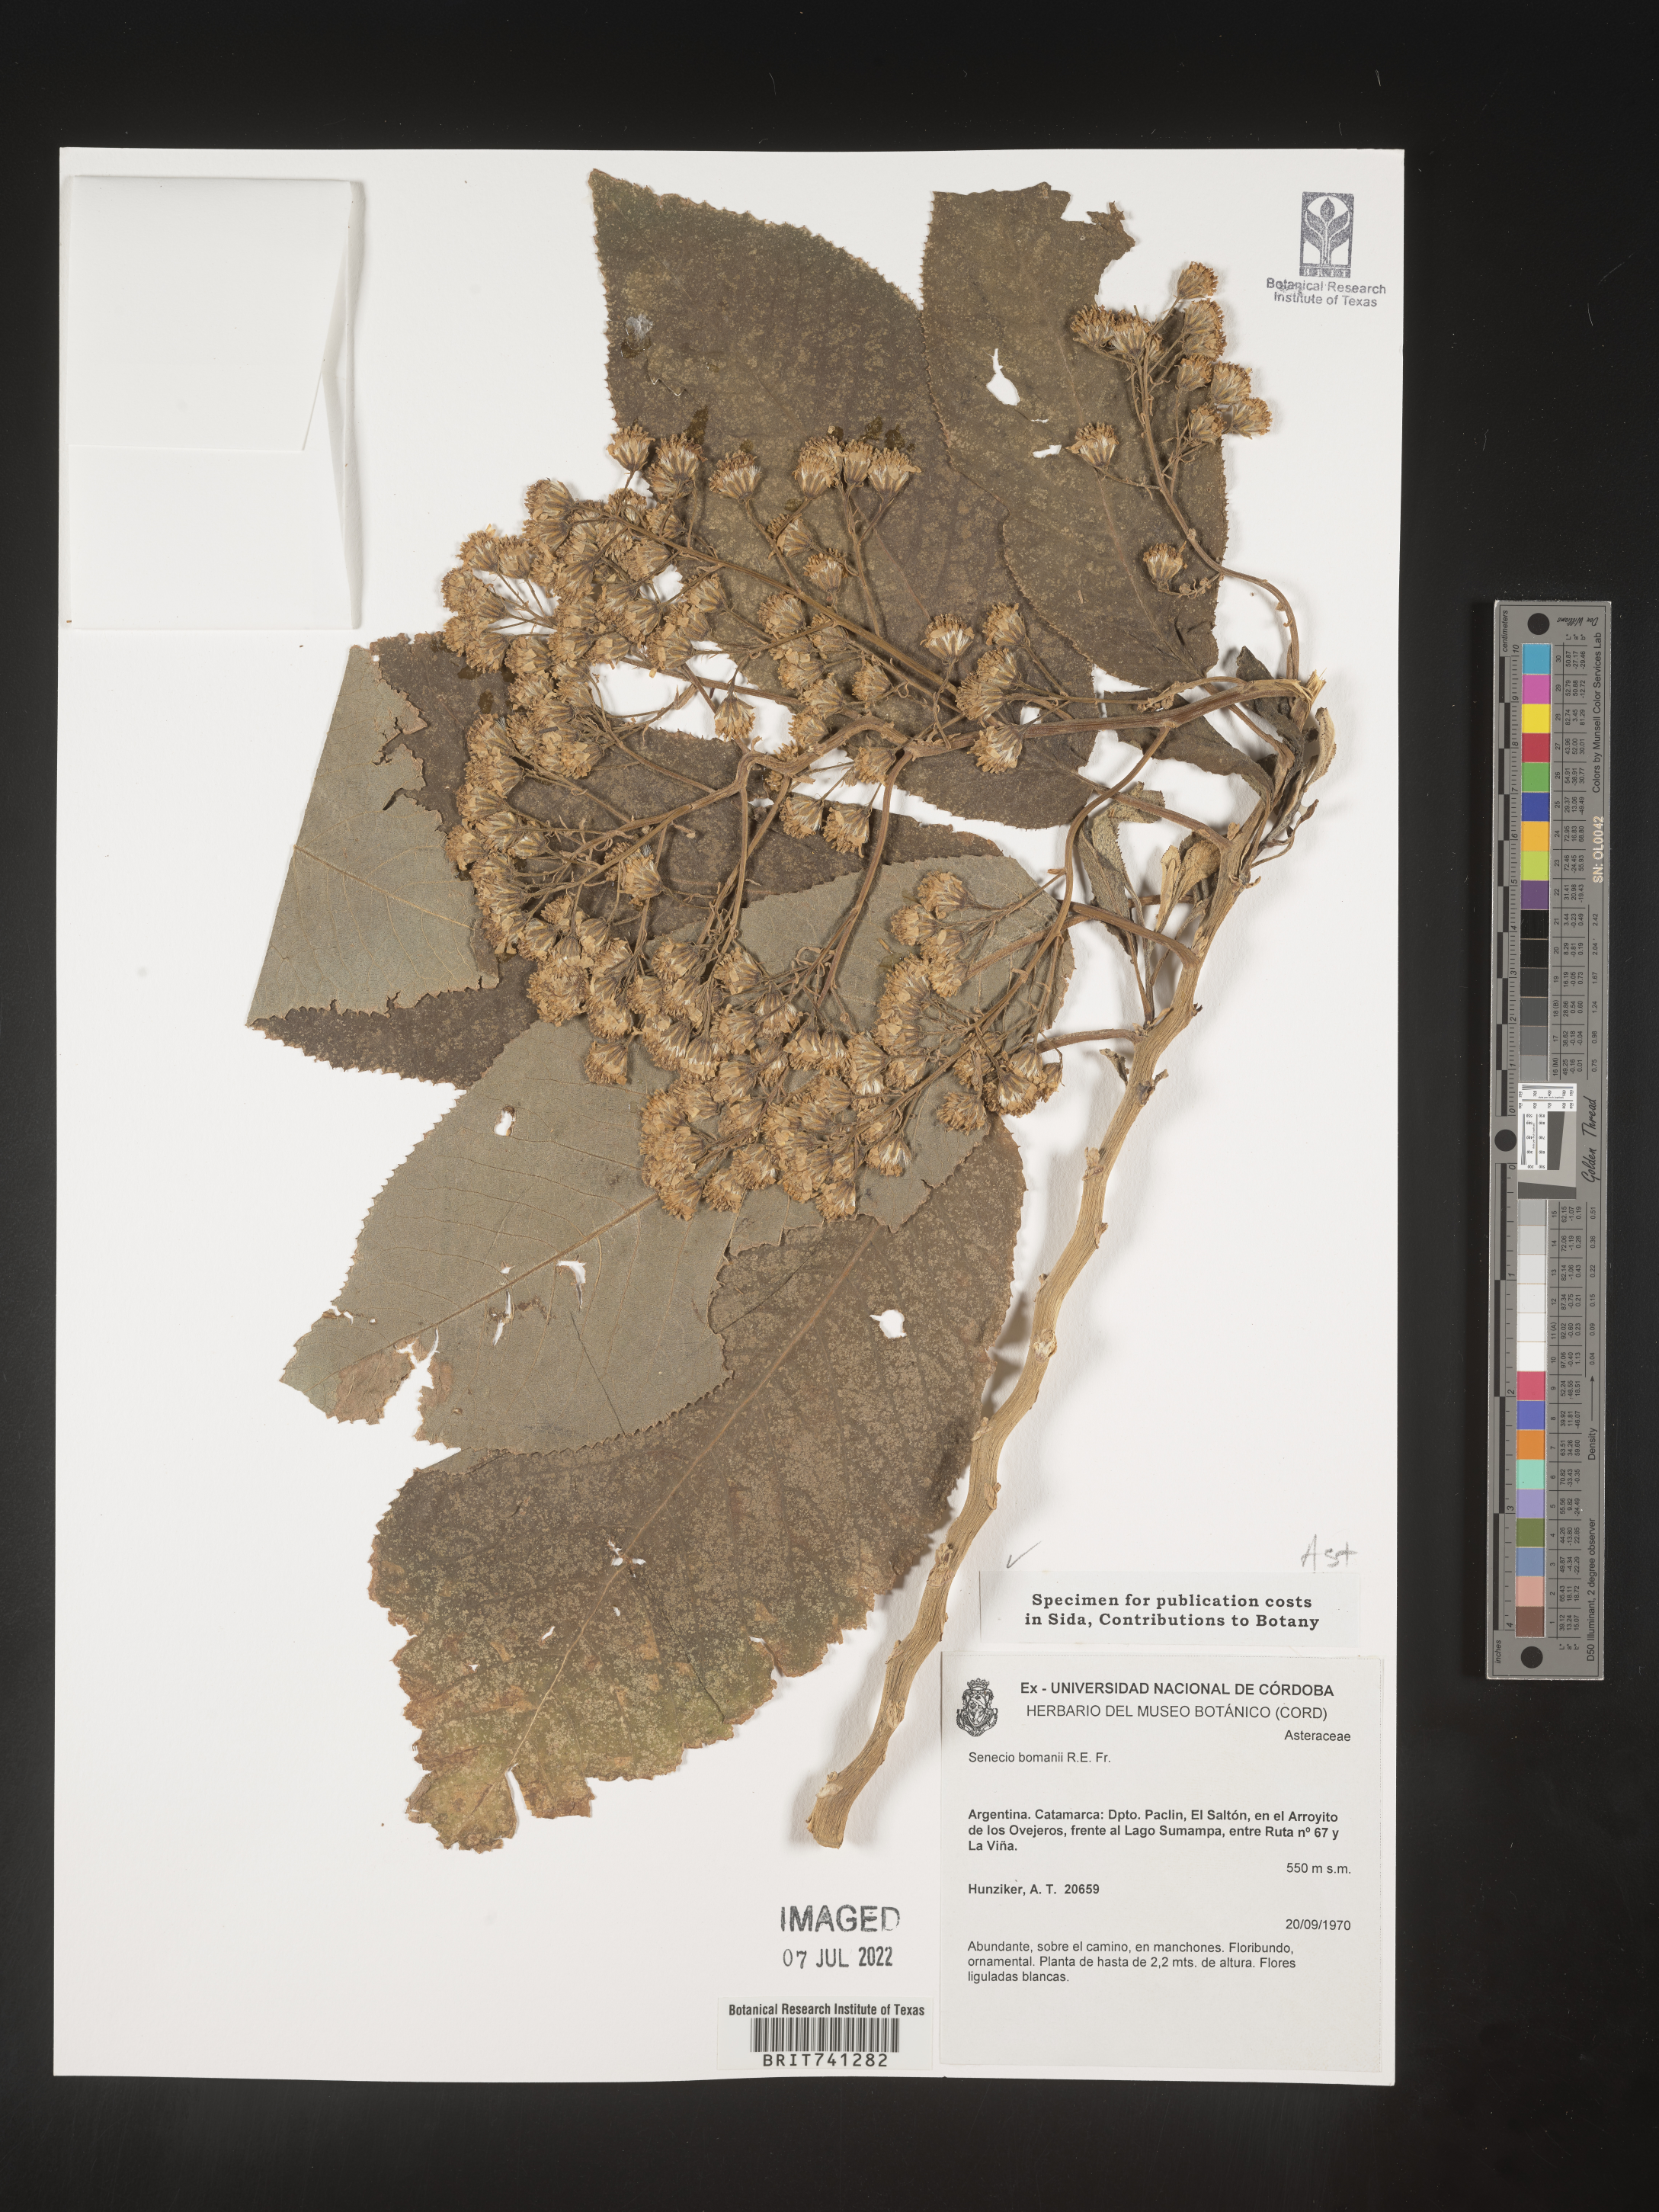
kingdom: Plantae
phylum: Tracheophyta
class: Magnoliopsida
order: Asterales
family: Asteraceae
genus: Senecio
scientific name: Senecio
